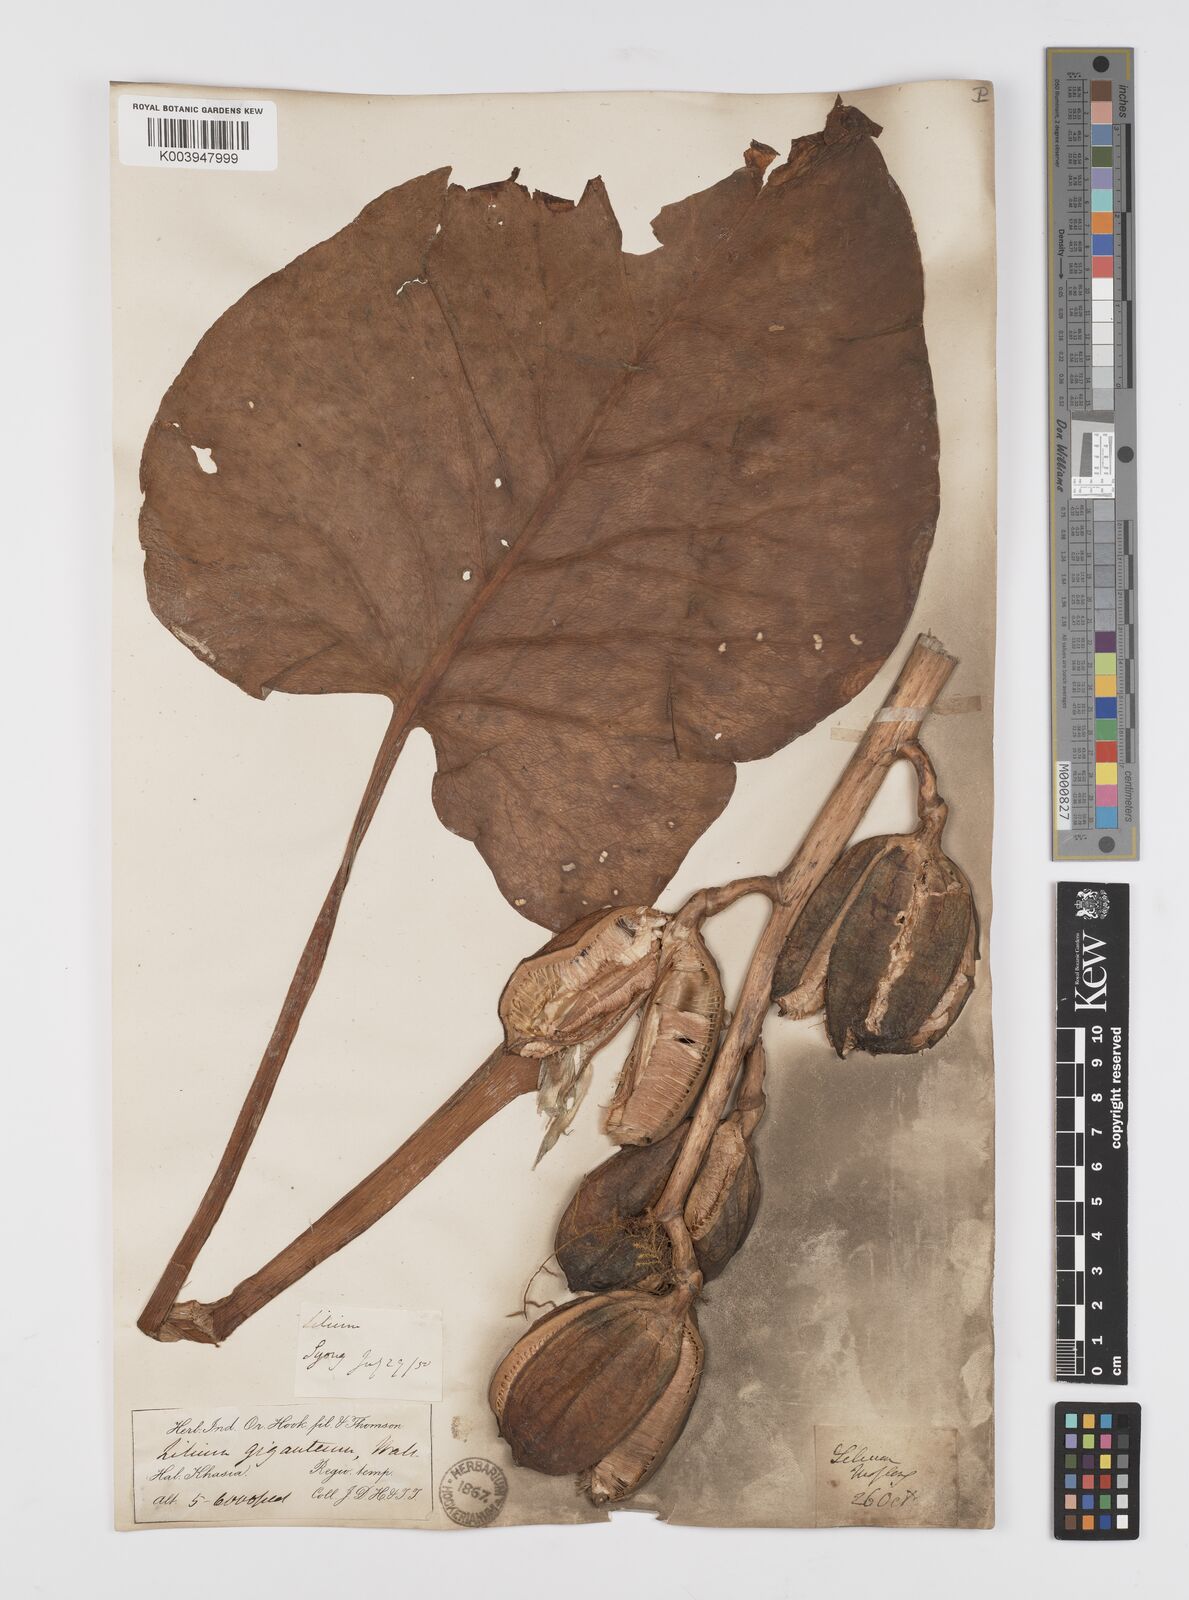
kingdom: Plantae
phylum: Tracheophyta
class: Liliopsida
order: Liliales
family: Liliaceae
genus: Cardiocrinum
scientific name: Cardiocrinum giganteum
